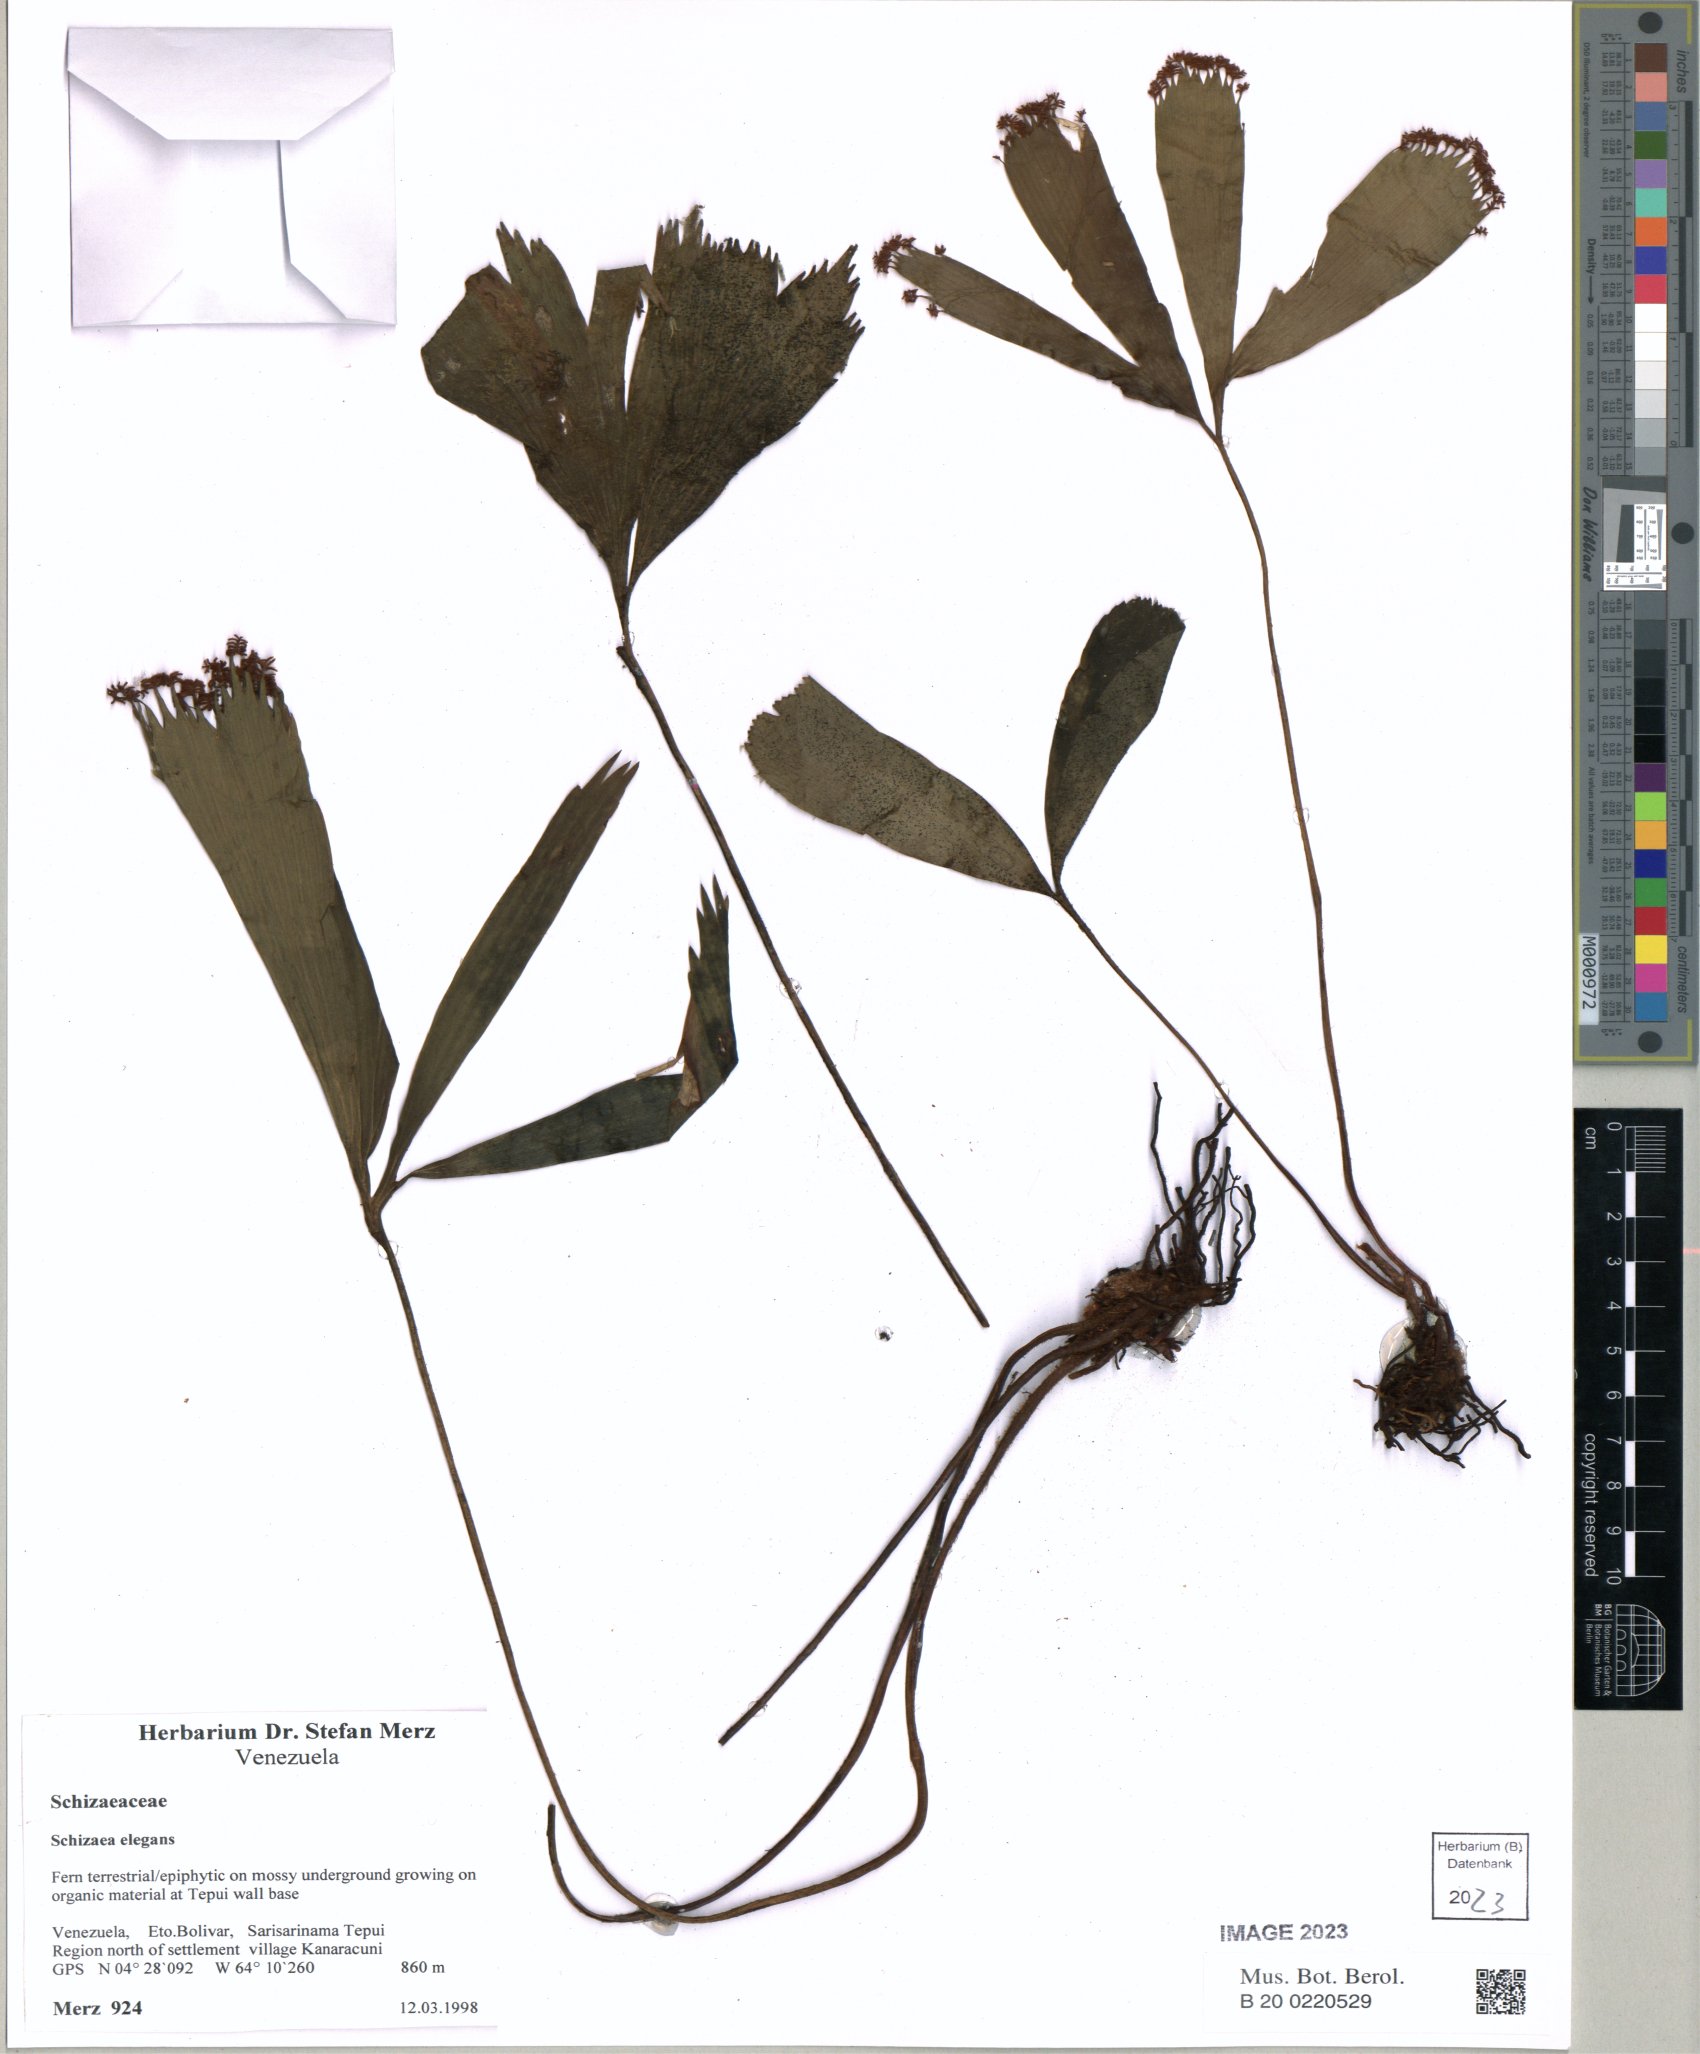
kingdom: Plantae
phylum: Tracheophyta
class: Polypodiopsida
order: Schizaeales
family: Schizaeaceae
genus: Schizaea
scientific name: Schizaea elegans
